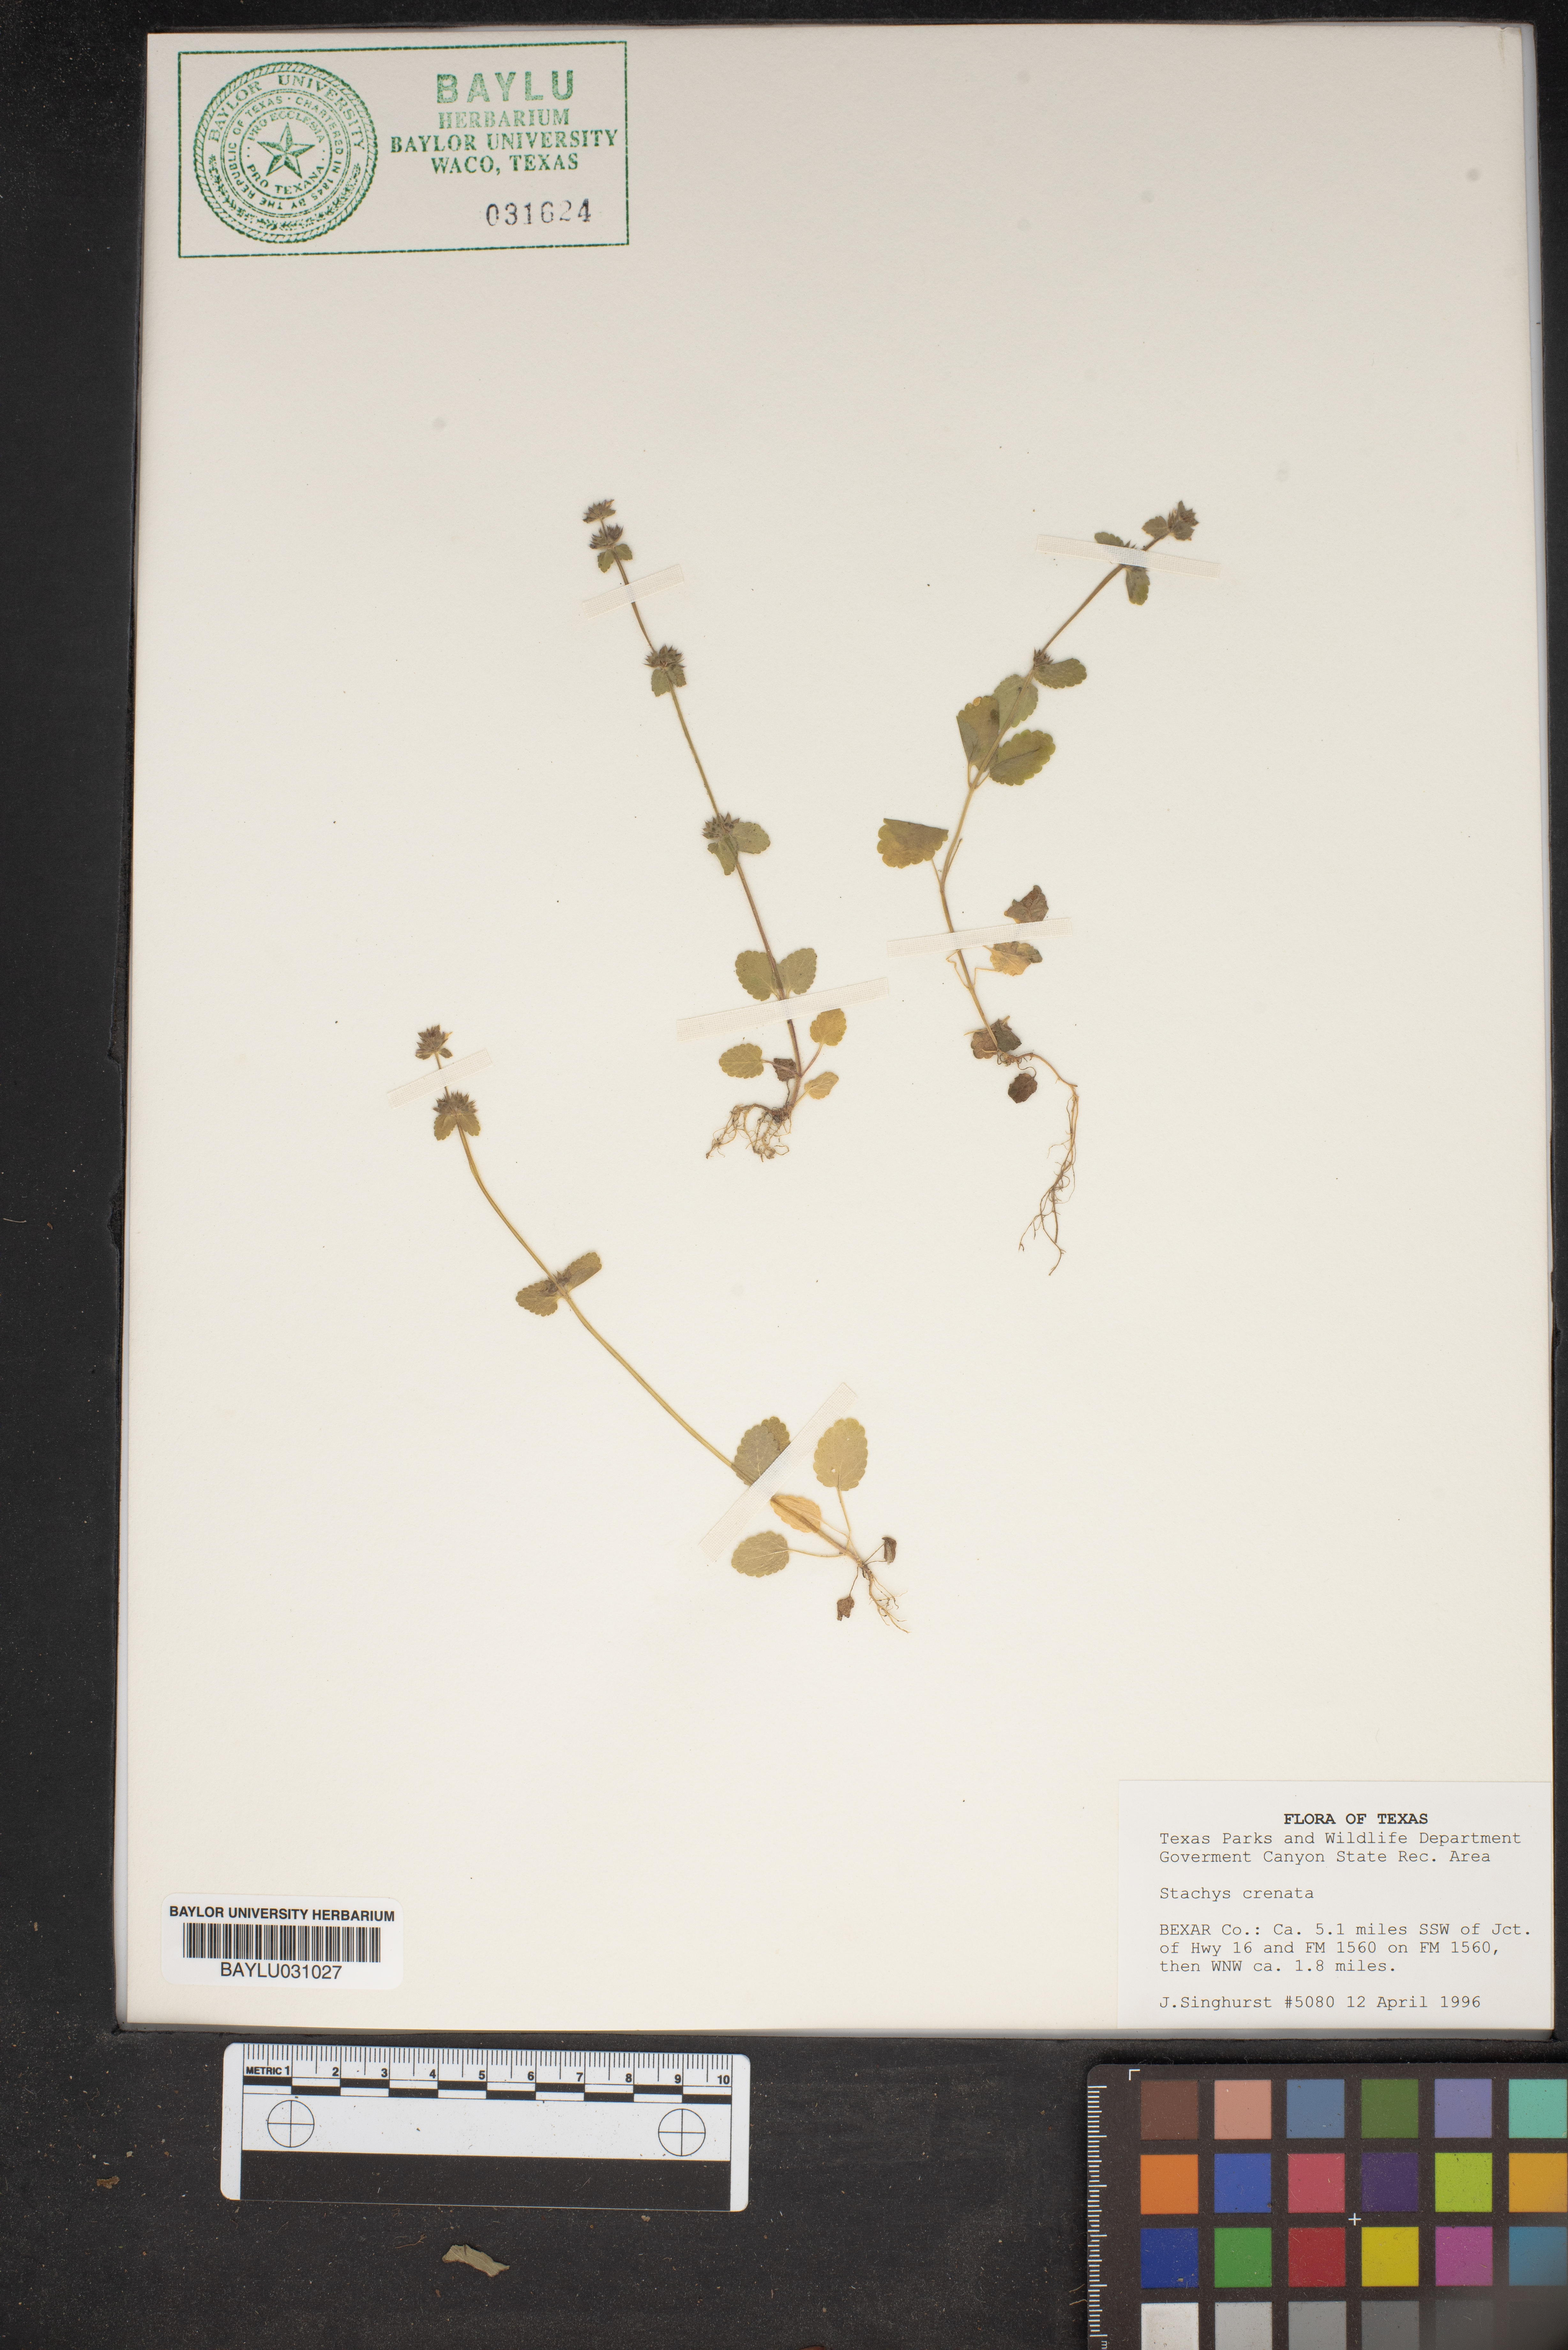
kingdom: Plantae
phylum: Tracheophyta
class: Magnoliopsida
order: Lamiales
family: Lamiaceae
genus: Stachys
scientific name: Stachys agraria
